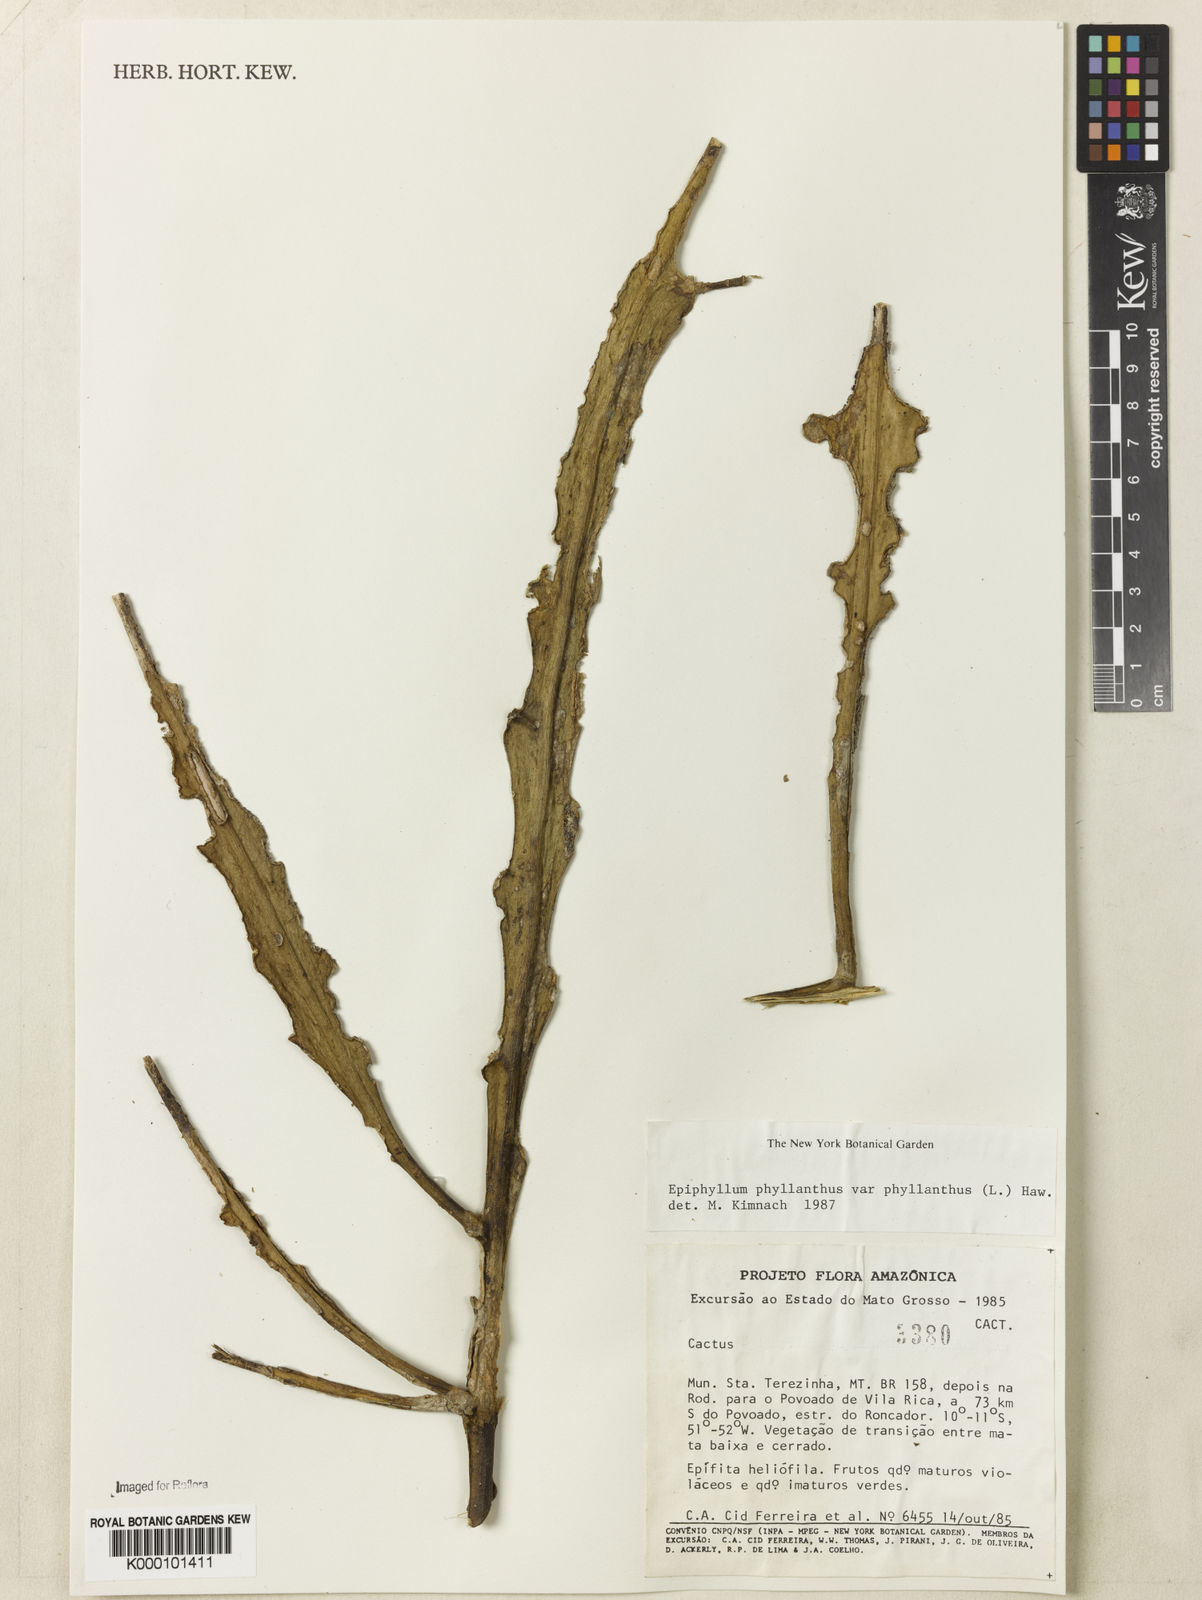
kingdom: Plantae
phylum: Tracheophyta
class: Magnoliopsida
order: Caryophyllales
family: Cactaceae
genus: Epiphyllum
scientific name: Epiphyllum phyllanthus
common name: Climbing cactus
